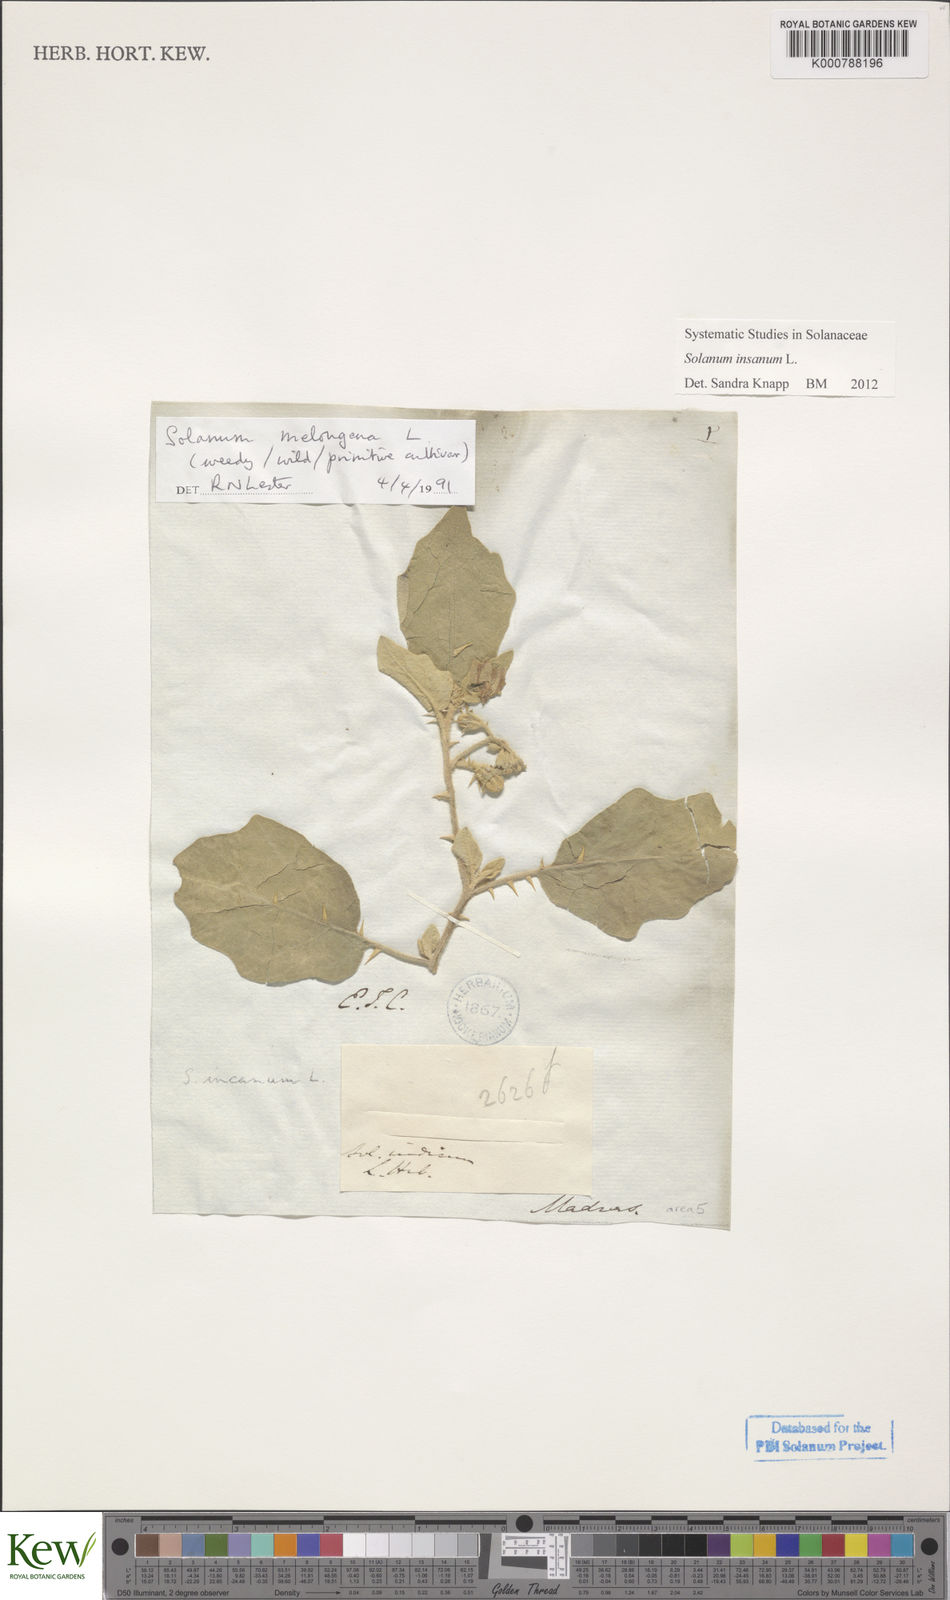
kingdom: Plantae
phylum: Tracheophyta
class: Magnoliopsida
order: Solanales
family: Solanaceae
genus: Solanum
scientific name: Solanum insanum
